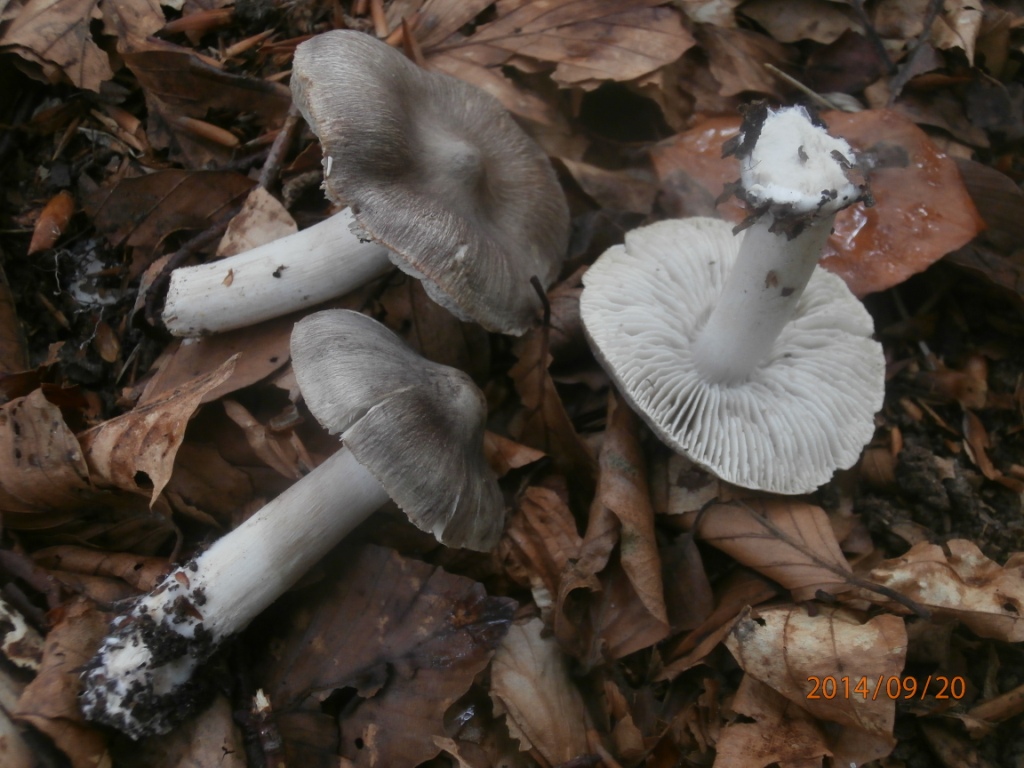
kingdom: Fungi
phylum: Basidiomycota
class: Agaricomycetes
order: Agaricales
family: Tricholomataceae
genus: Tricholoma
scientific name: Tricholoma sciodes
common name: stribet ridderhat
